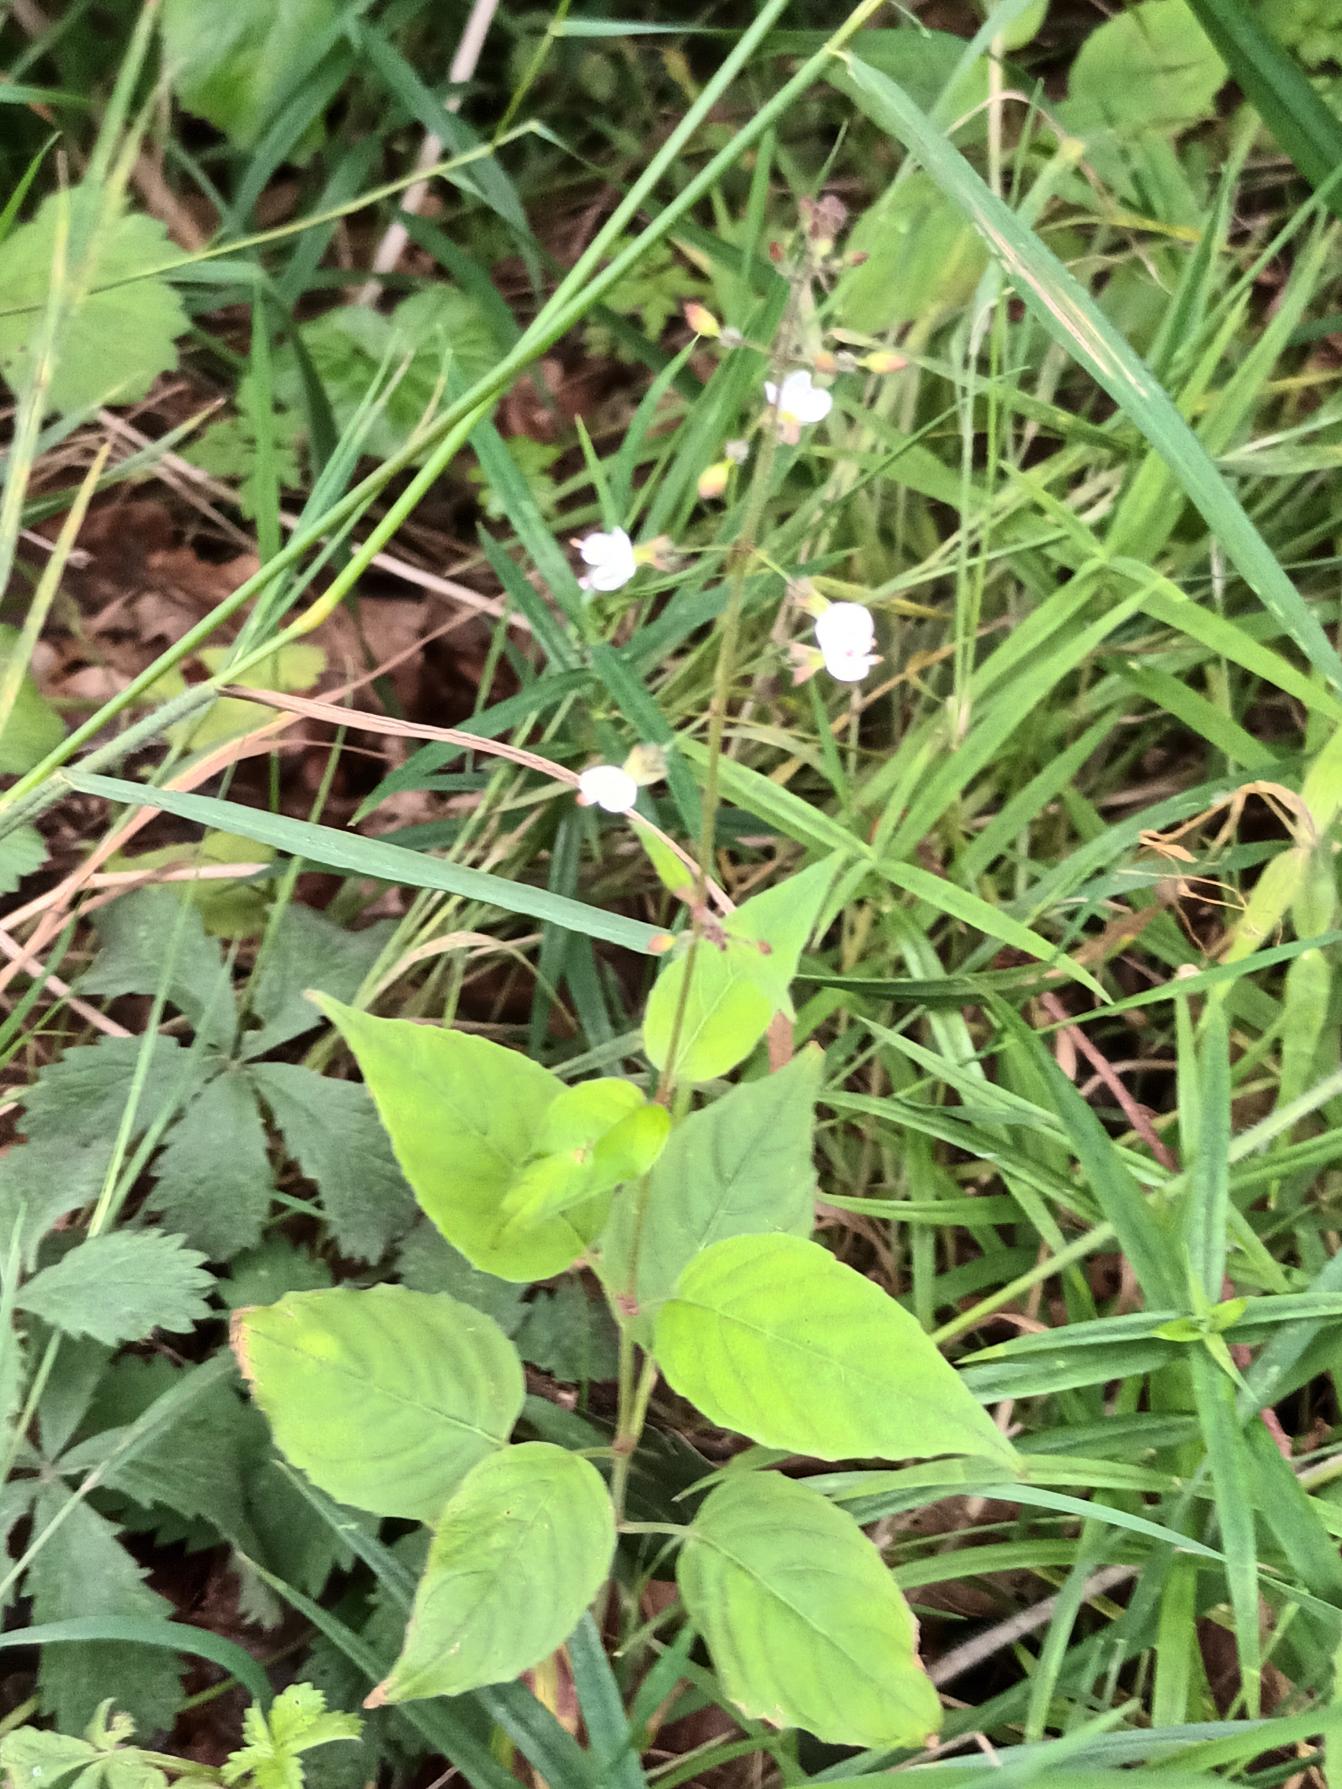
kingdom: Plantae
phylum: Tracheophyta
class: Magnoliopsida
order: Myrtales
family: Onagraceae
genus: Circaea
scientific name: Circaea lutetiana
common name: Dunet steffensurt
